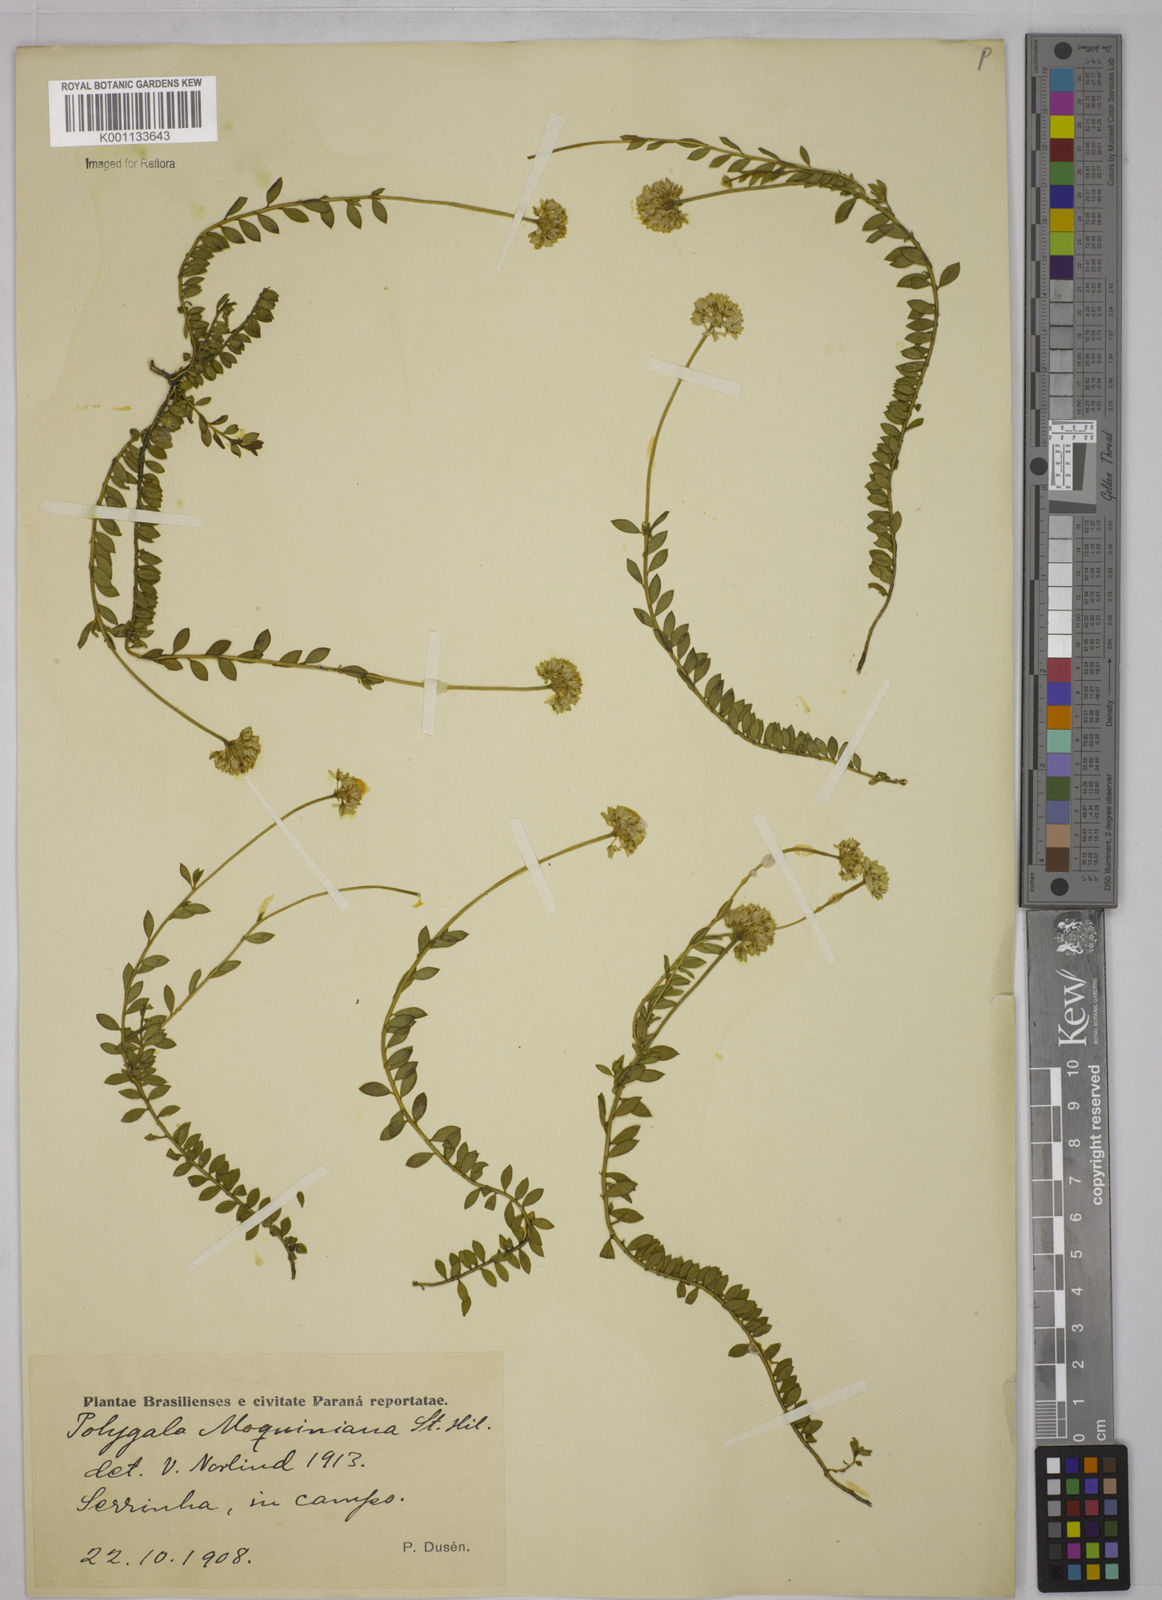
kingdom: Plantae
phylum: Tracheophyta
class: Magnoliopsida
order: Fabales
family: Polygalaceae
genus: Polygala
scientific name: Polygala moquiniana
